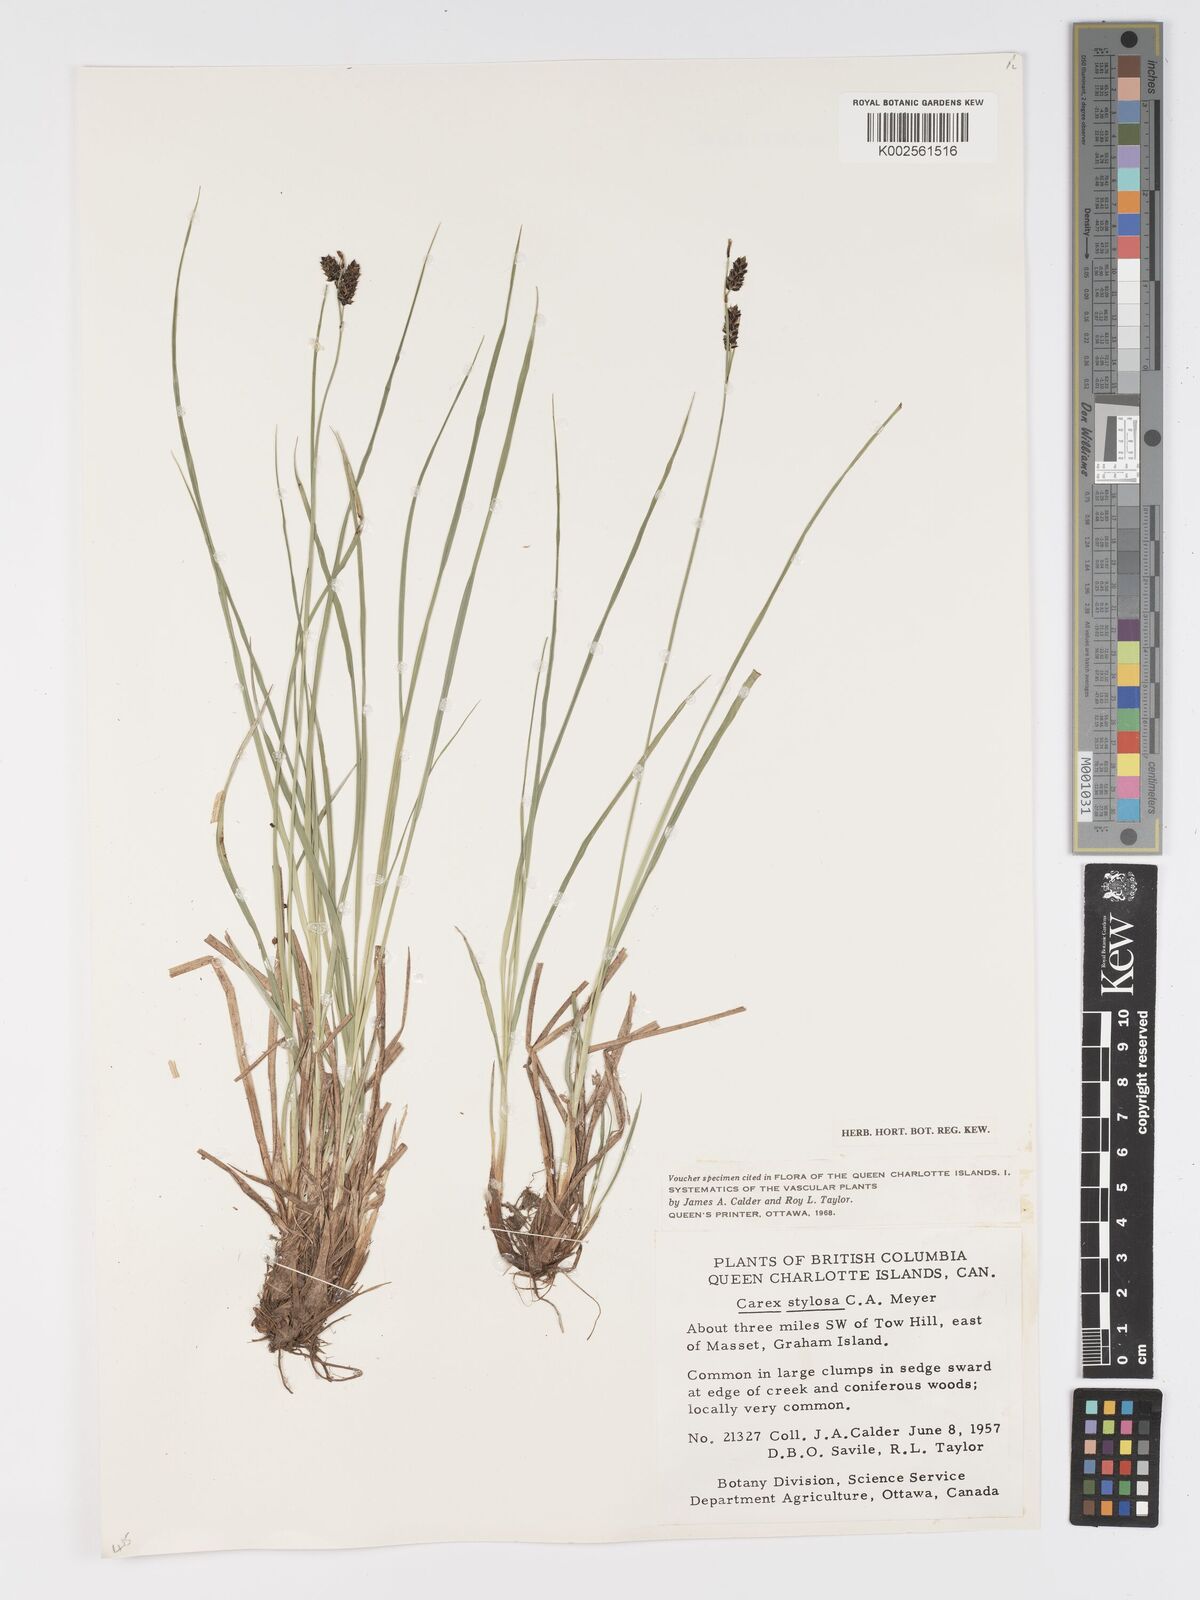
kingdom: Plantae
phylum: Tracheophyta
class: Liliopsida
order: Poales
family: Cyperaceae
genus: Carex
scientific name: Carex stylosa
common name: Long-styled sedge
